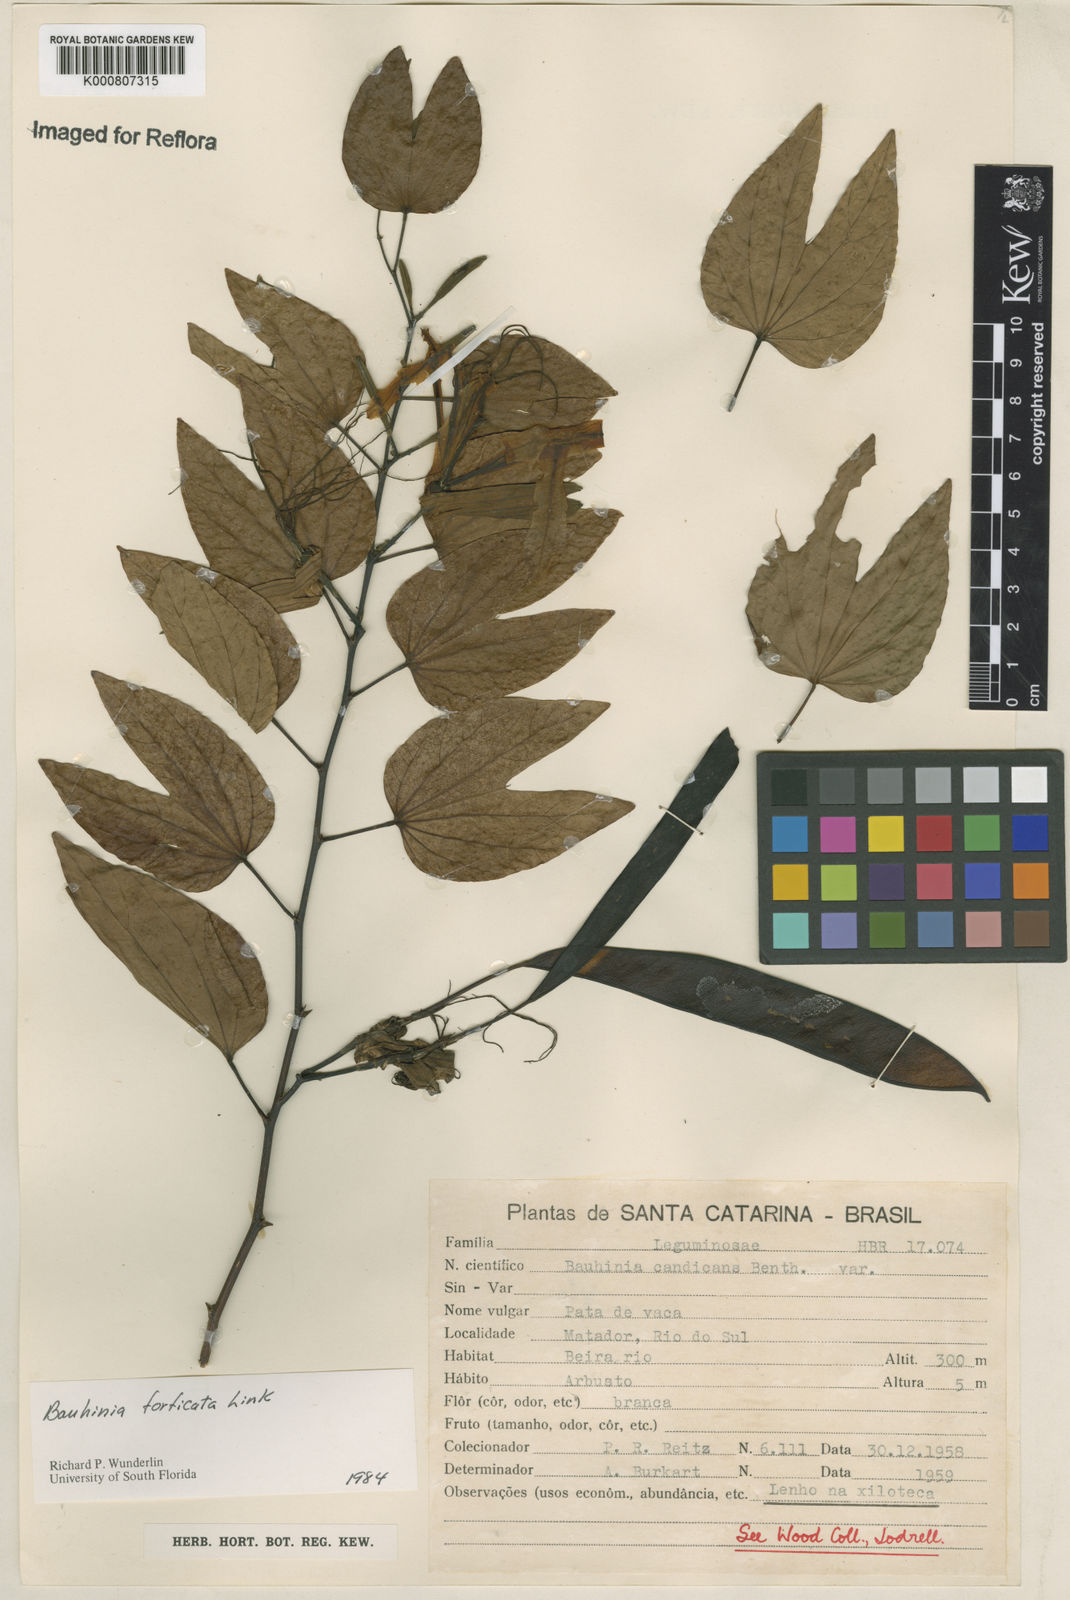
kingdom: Plantae
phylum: Tracheophyta
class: Magnoliopsida
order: Fabales
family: Fabaceae
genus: Bauhinia
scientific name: Bauhinia forficata
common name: Orchid tree
